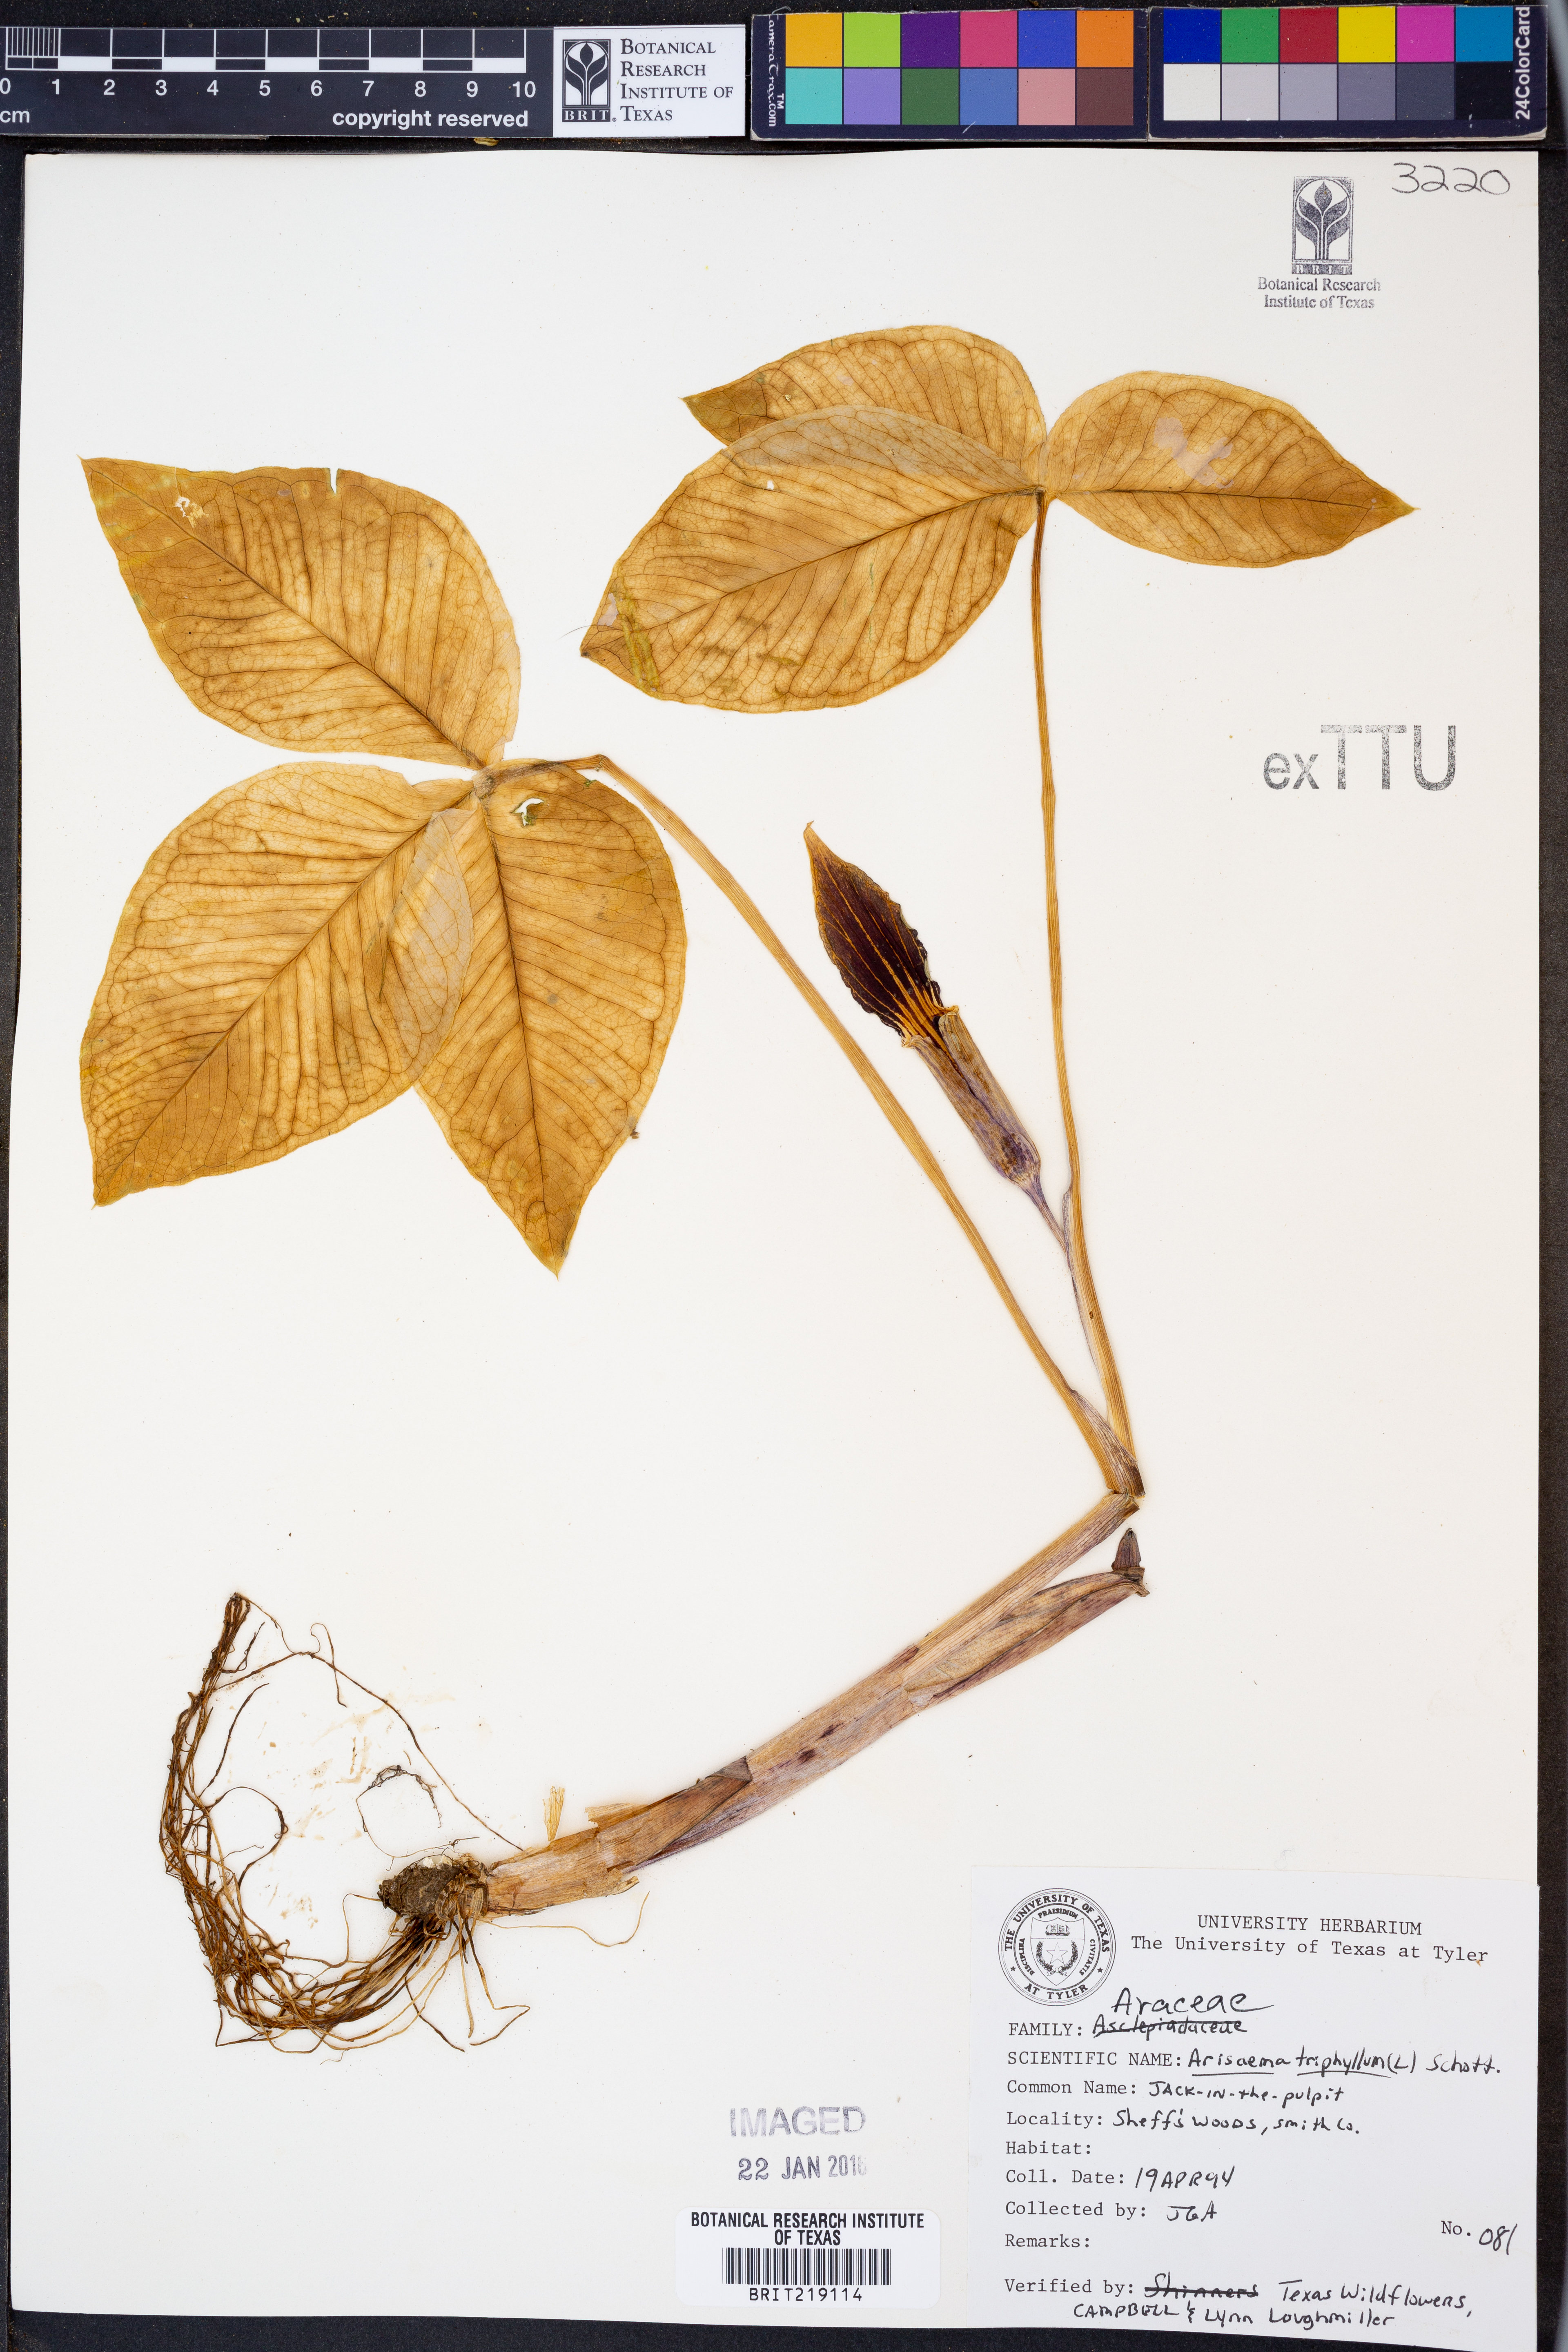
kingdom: Plantae
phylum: Tracheophyta
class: Liliopsida
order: Alismatales
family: Araceae
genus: Arisaema
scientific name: Arisaema triphyllum
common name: Jack-in-the-pulpit
